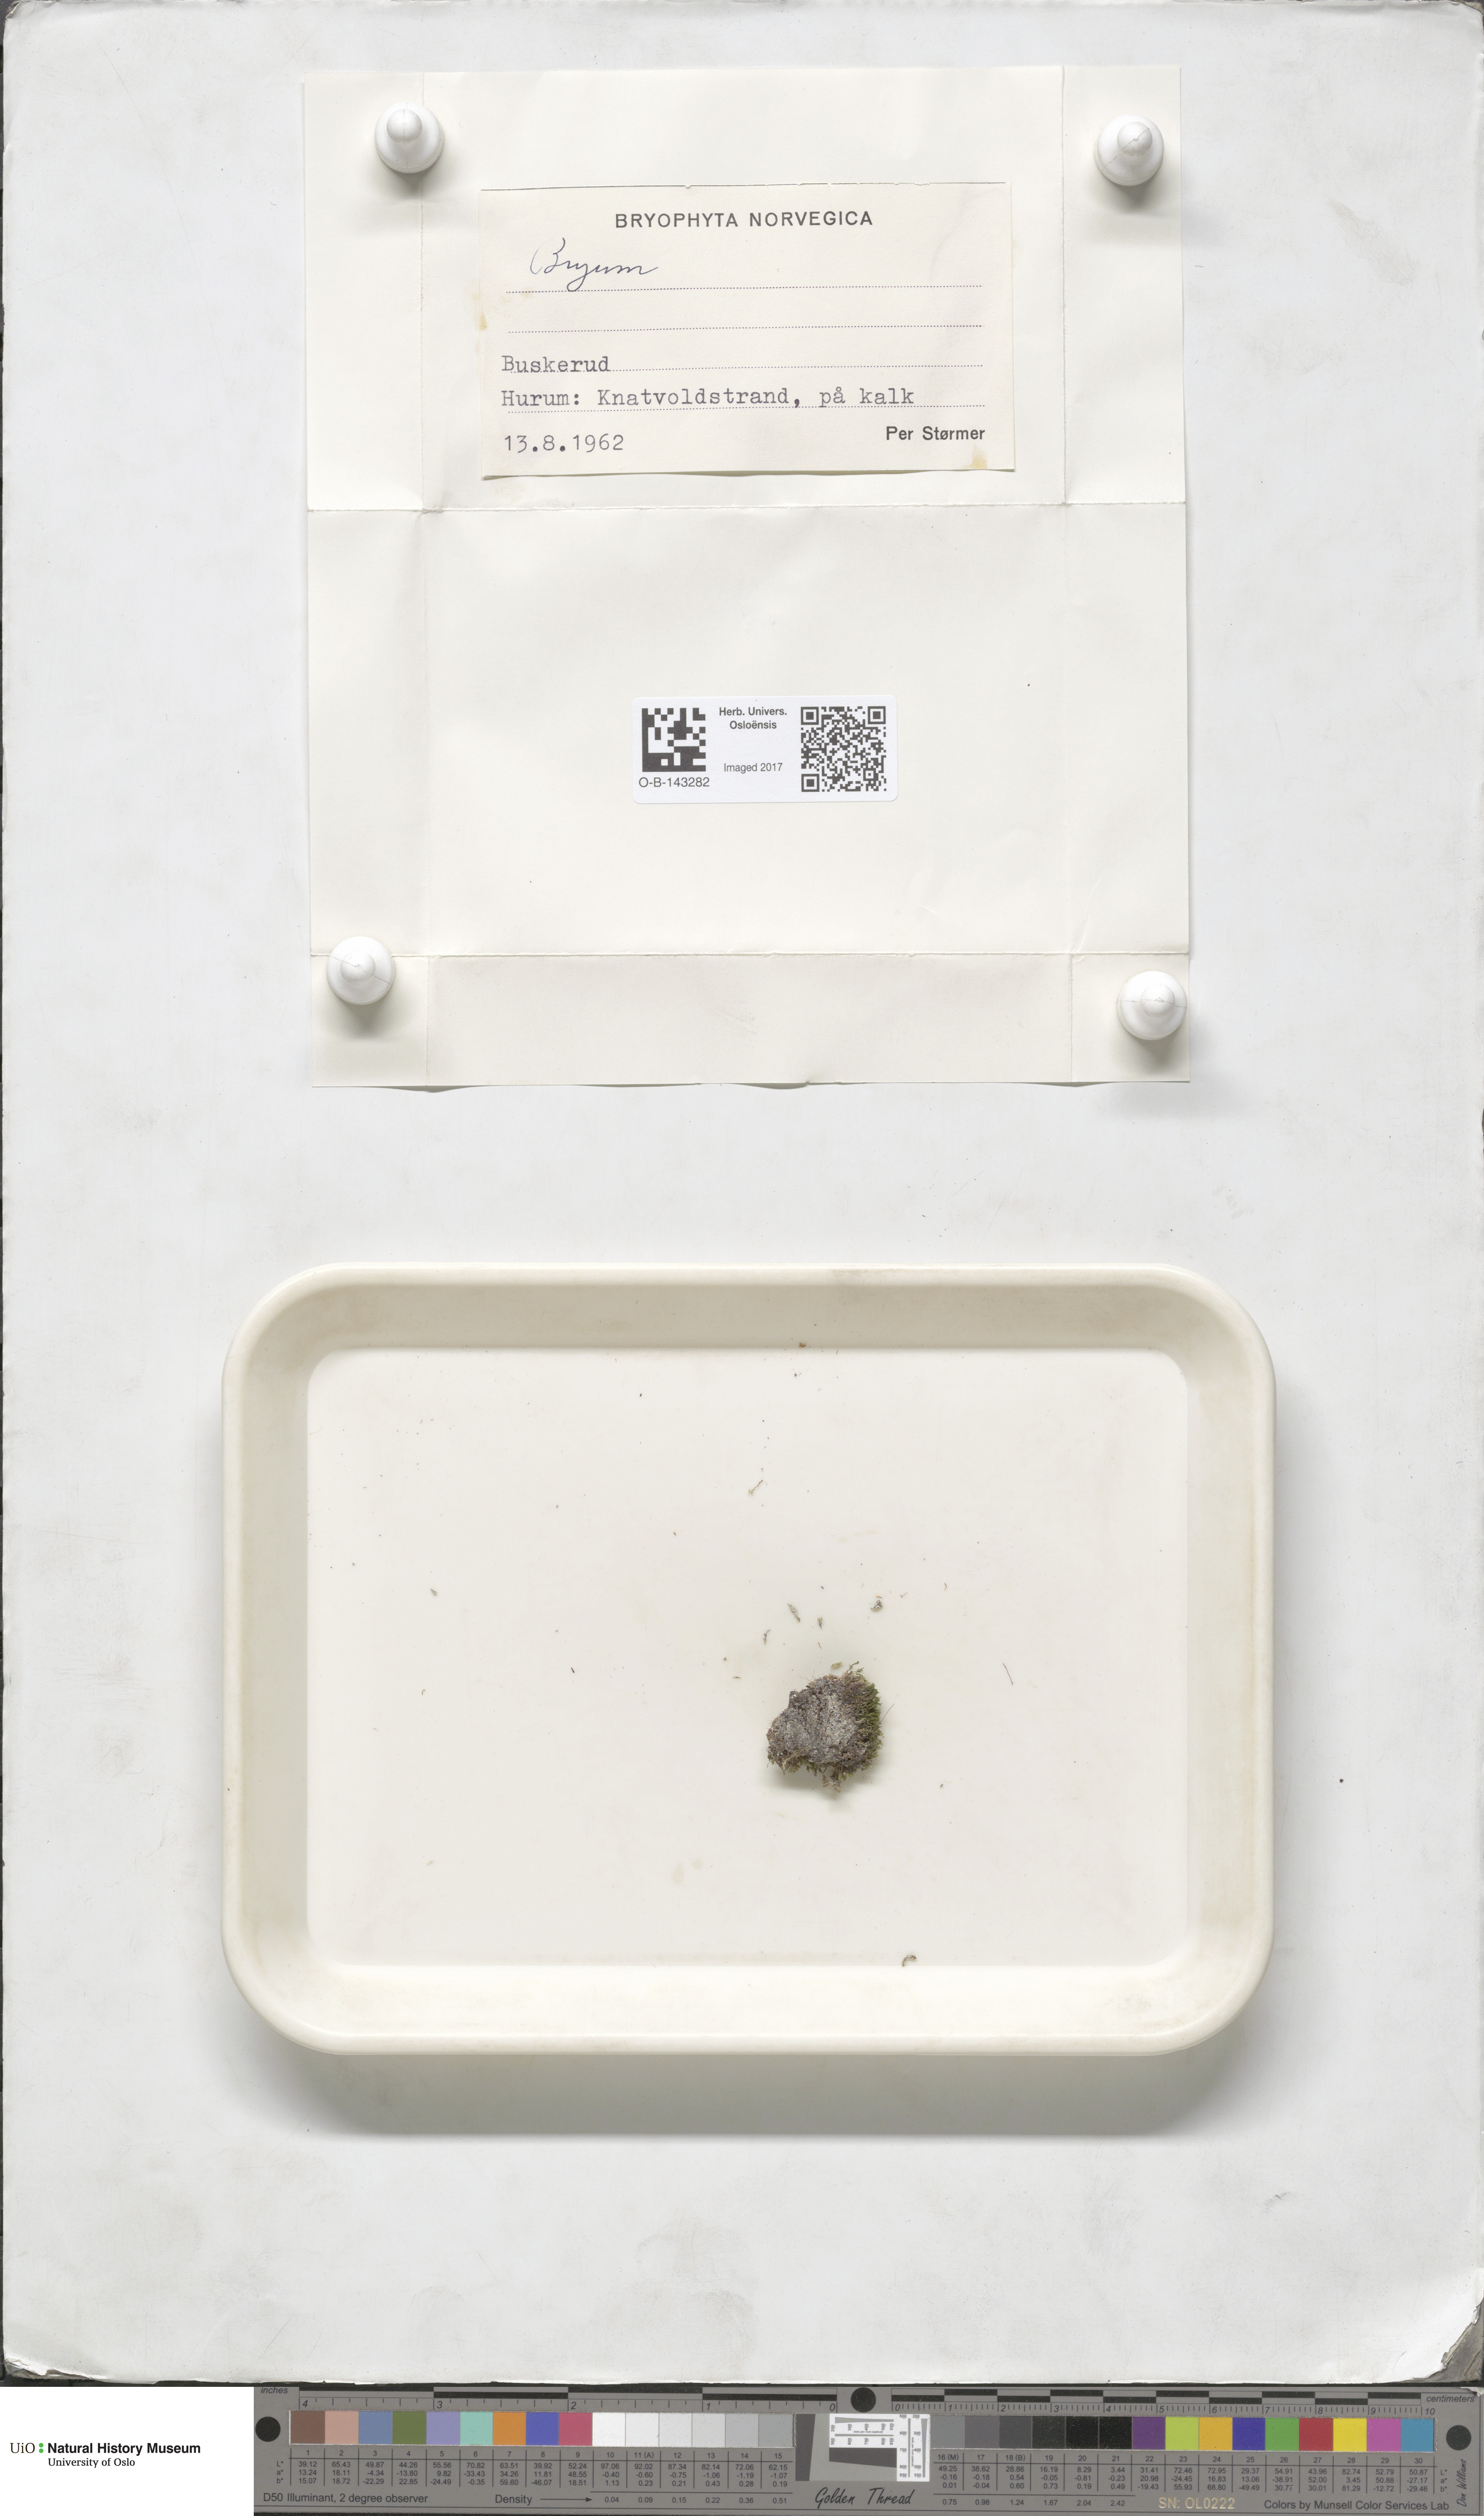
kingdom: Plantae
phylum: Bryophyta
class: Bryopsida
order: Bryales
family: Bryaceae
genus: Bryum
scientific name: Bryum
